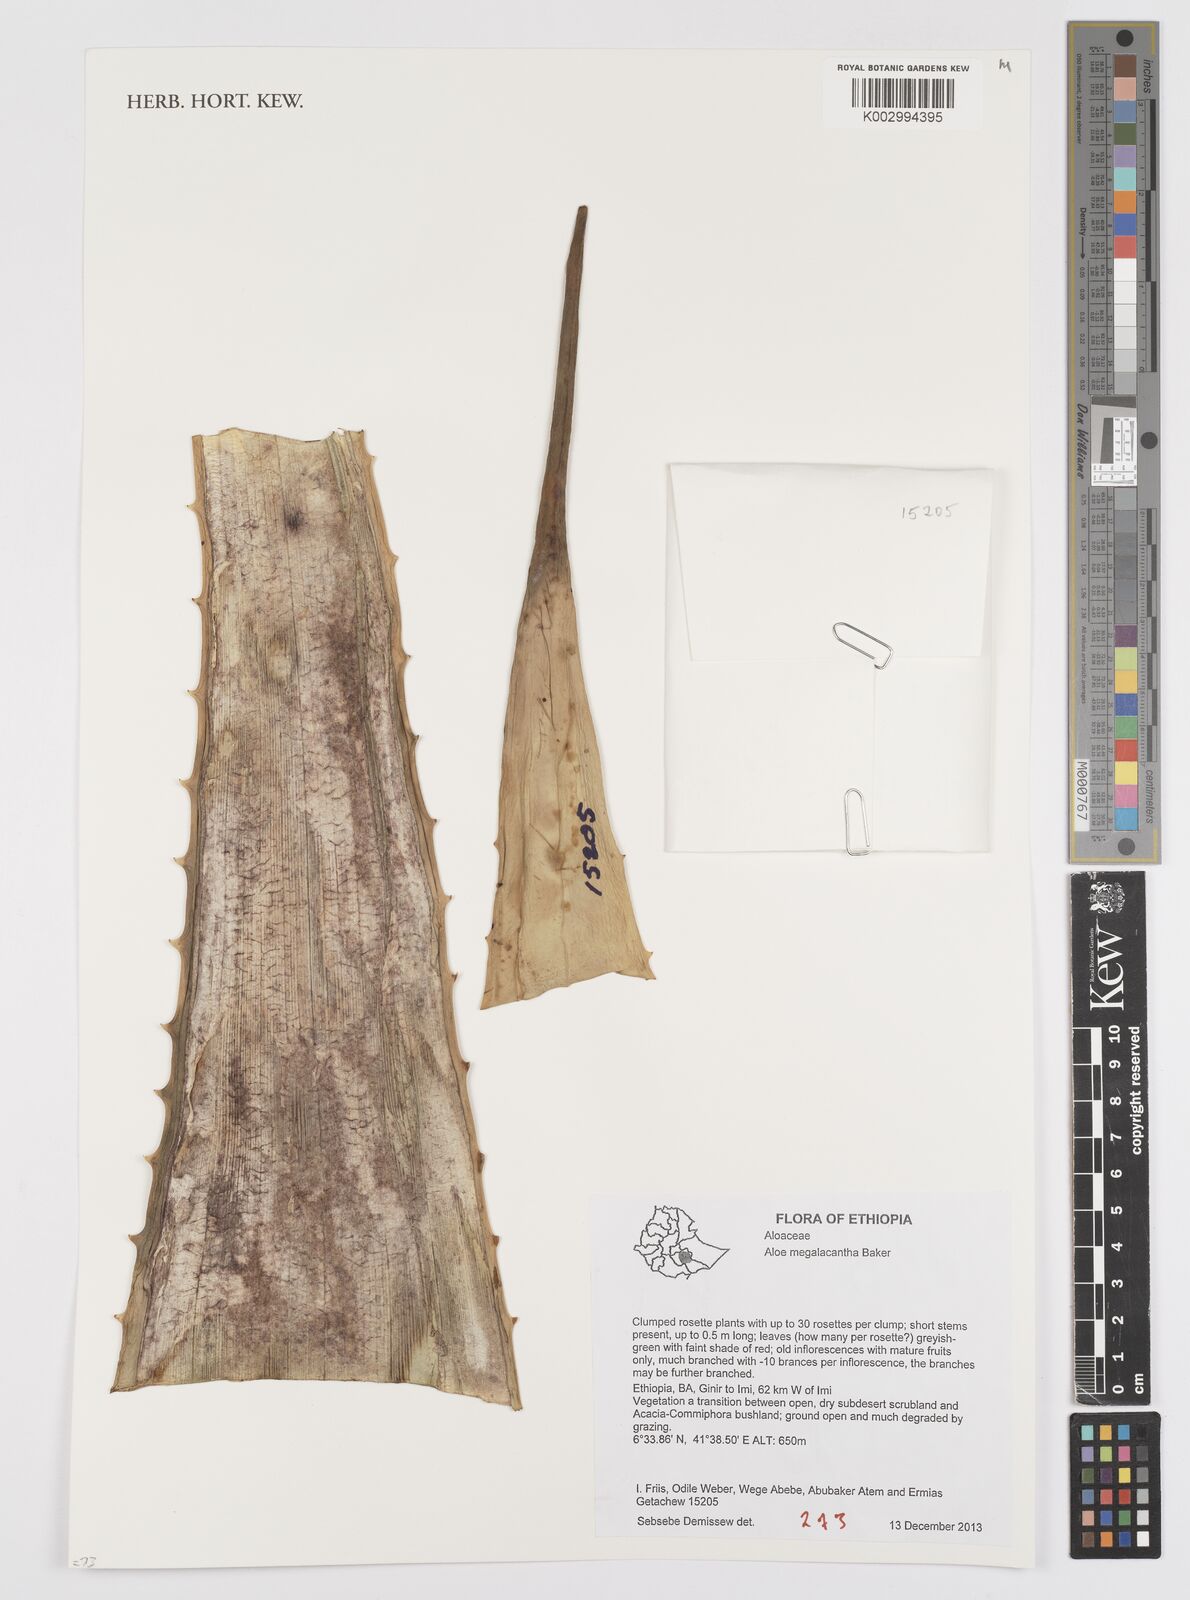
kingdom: Plantae
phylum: Tracheophyta
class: Liliopsida
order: Asparagales
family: Asphodelaceae
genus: Aloe
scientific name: Aloe megalacantha
